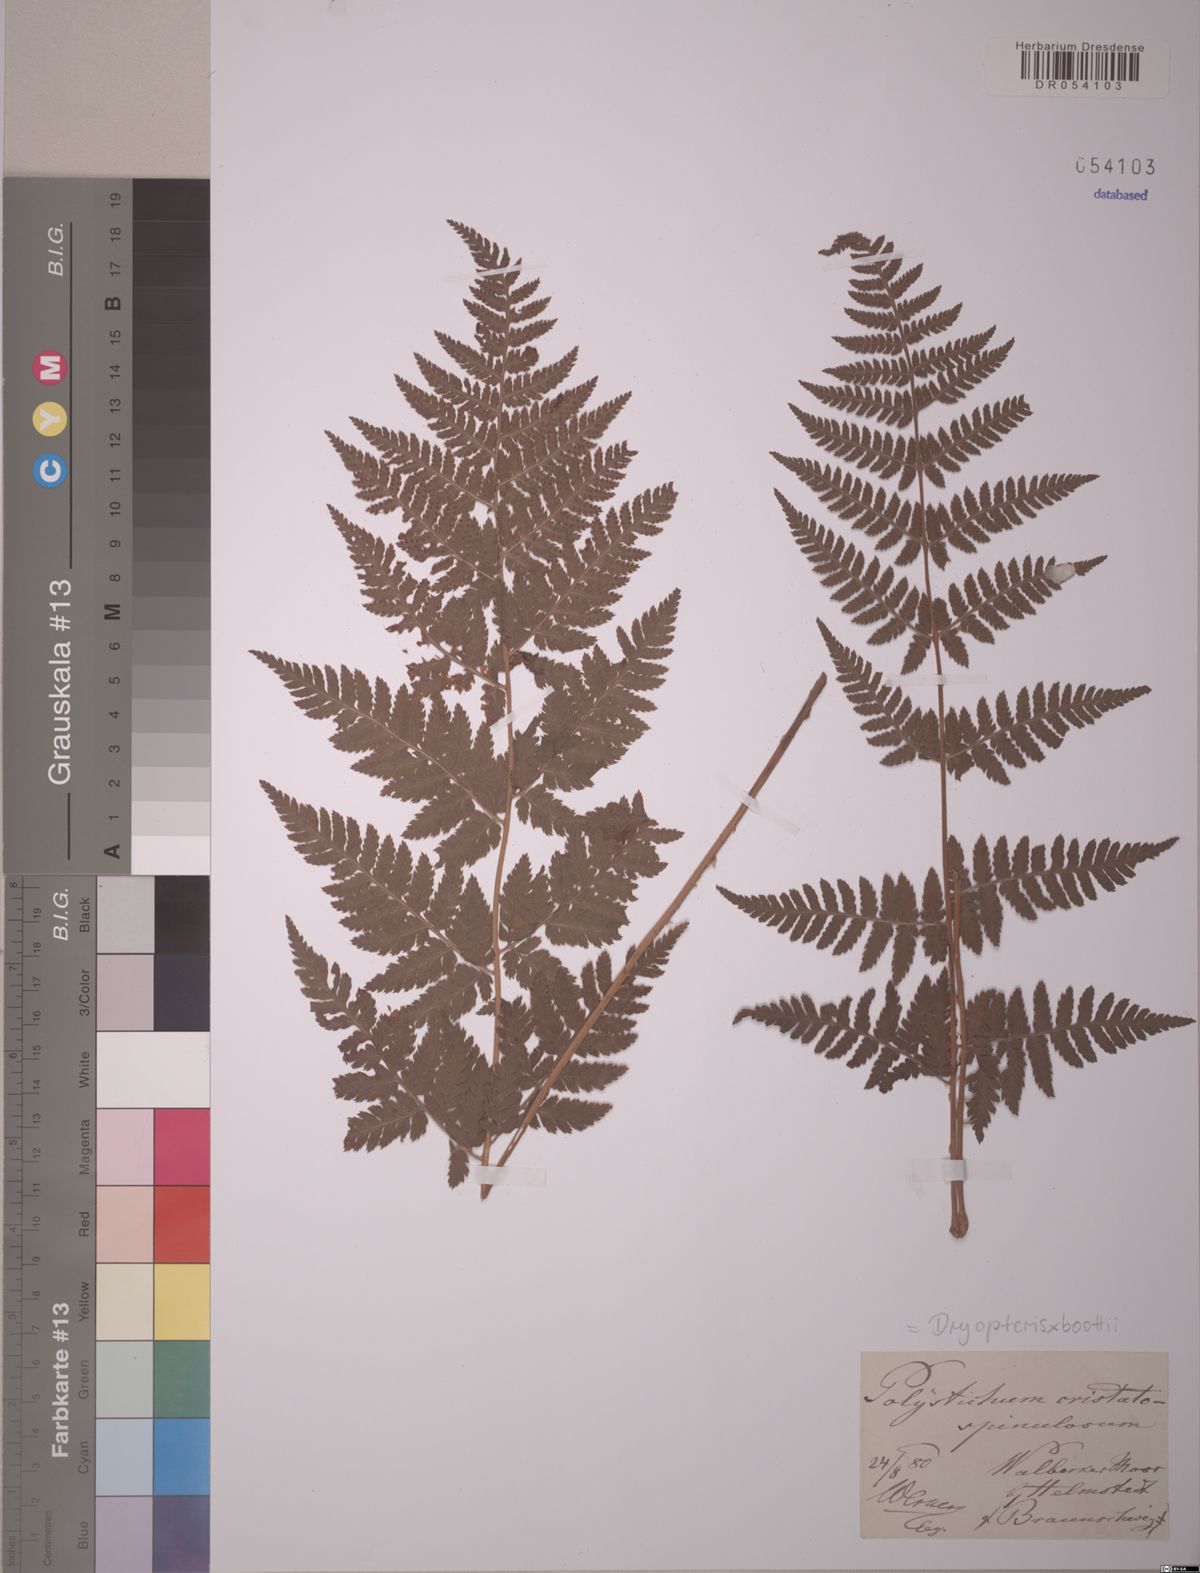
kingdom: Plantae
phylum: Tracheophyta
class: Polypodiopsida
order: Polypodiales
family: Dryopteridaceae
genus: Dryopteris
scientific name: Dryopteris boottii
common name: Boott's fern
